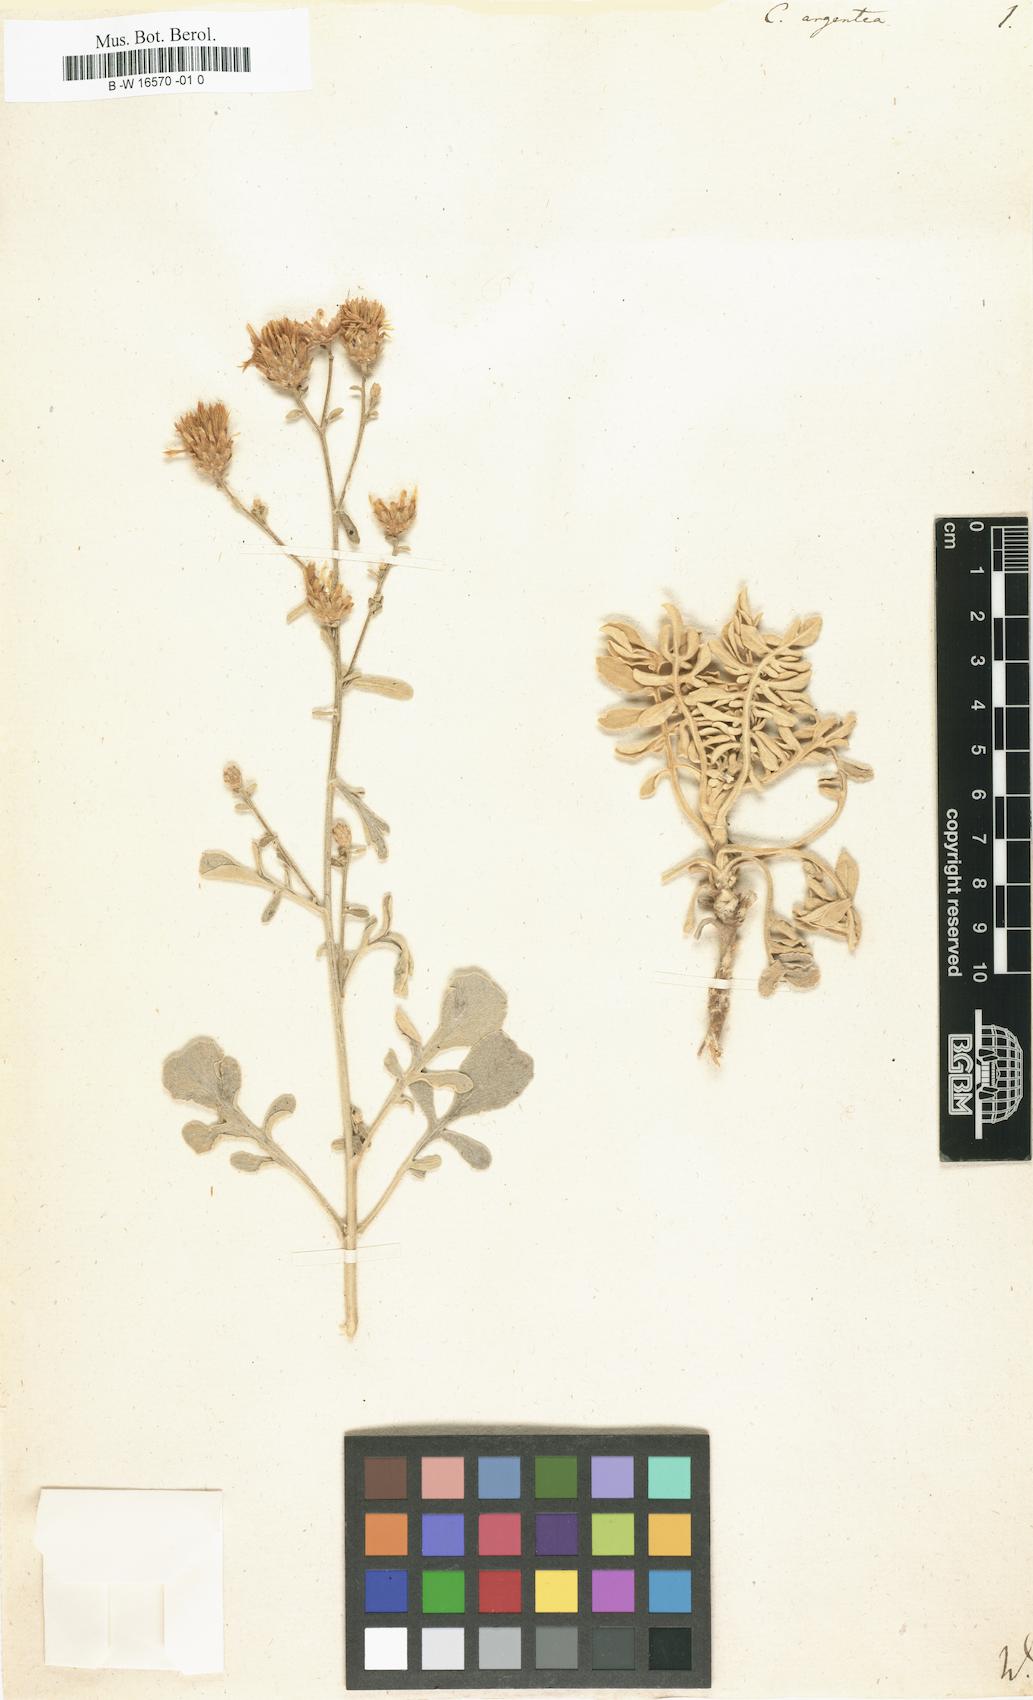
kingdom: Plantae
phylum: Tracheophyta
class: Magnoliopsida
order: Asterales
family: Asteraceae
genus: Centaurea
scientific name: Centaurea argentea
